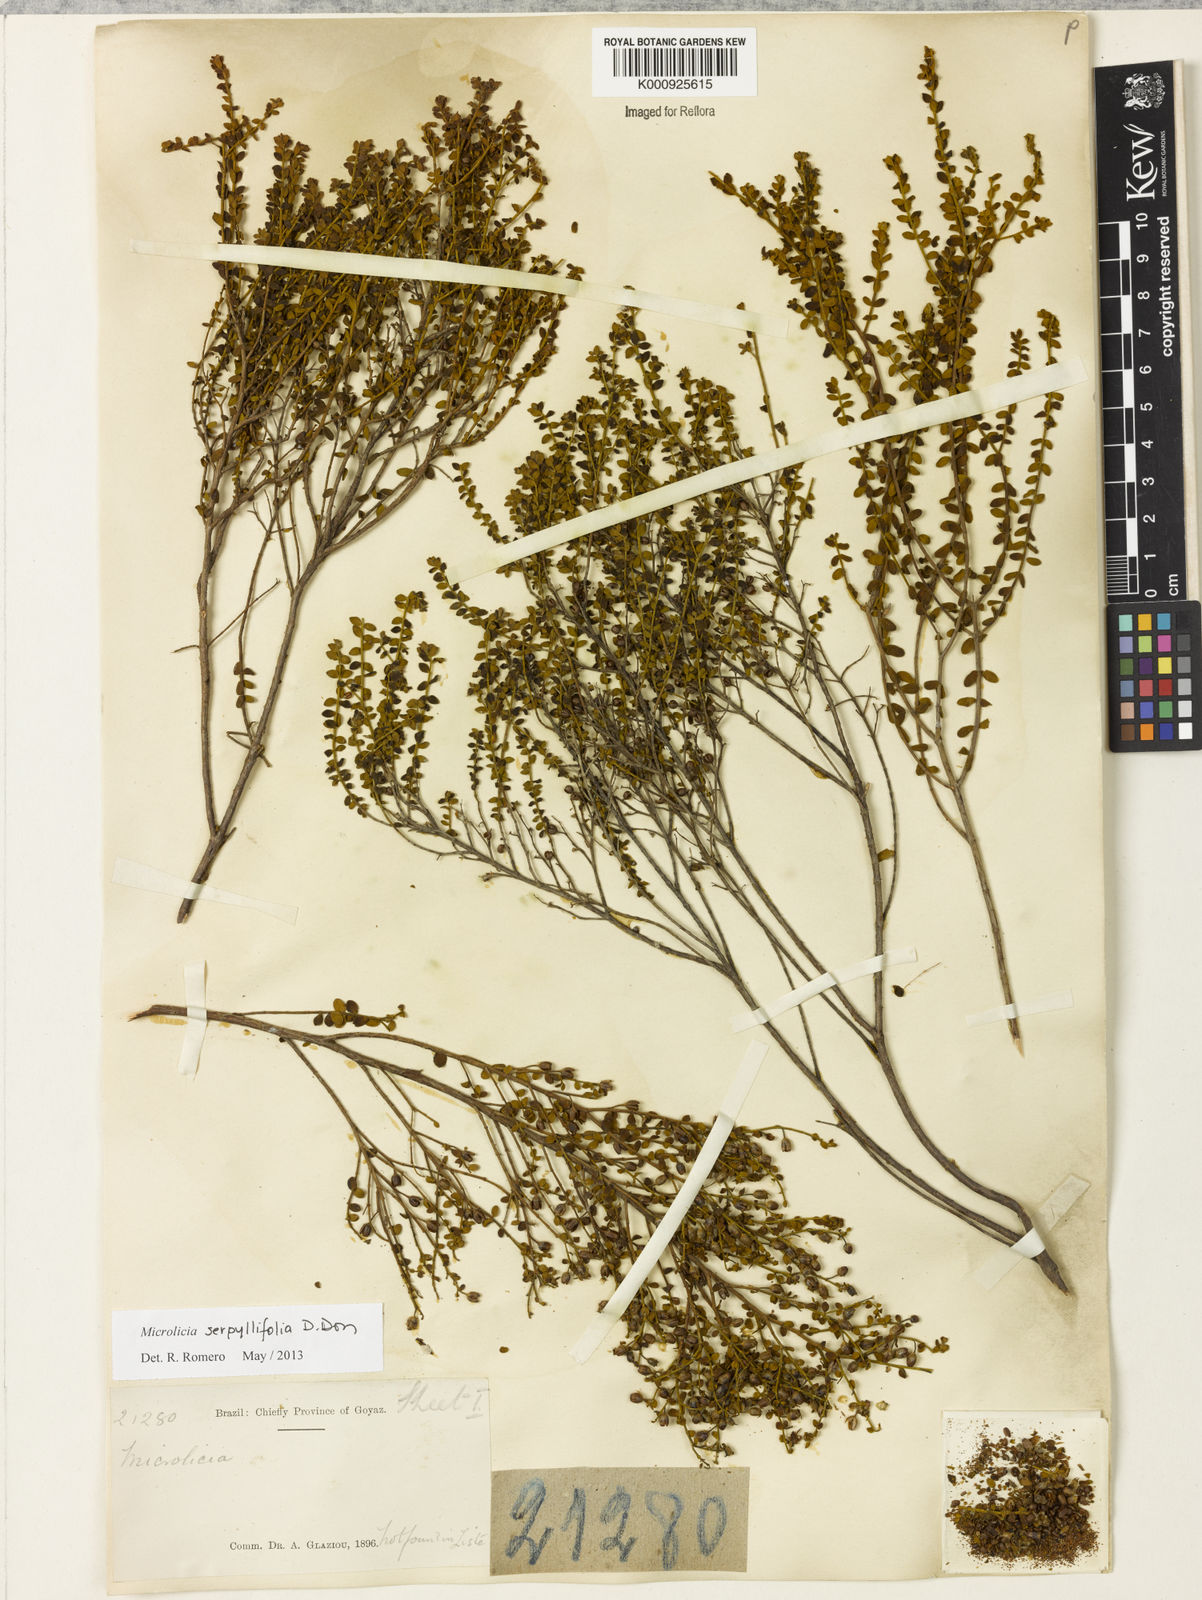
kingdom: Plantae
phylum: Tracheophyta
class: Magnoliopsida
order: Myrtales
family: Melastomataceae
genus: Microlicia
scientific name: Microlicia fulva
